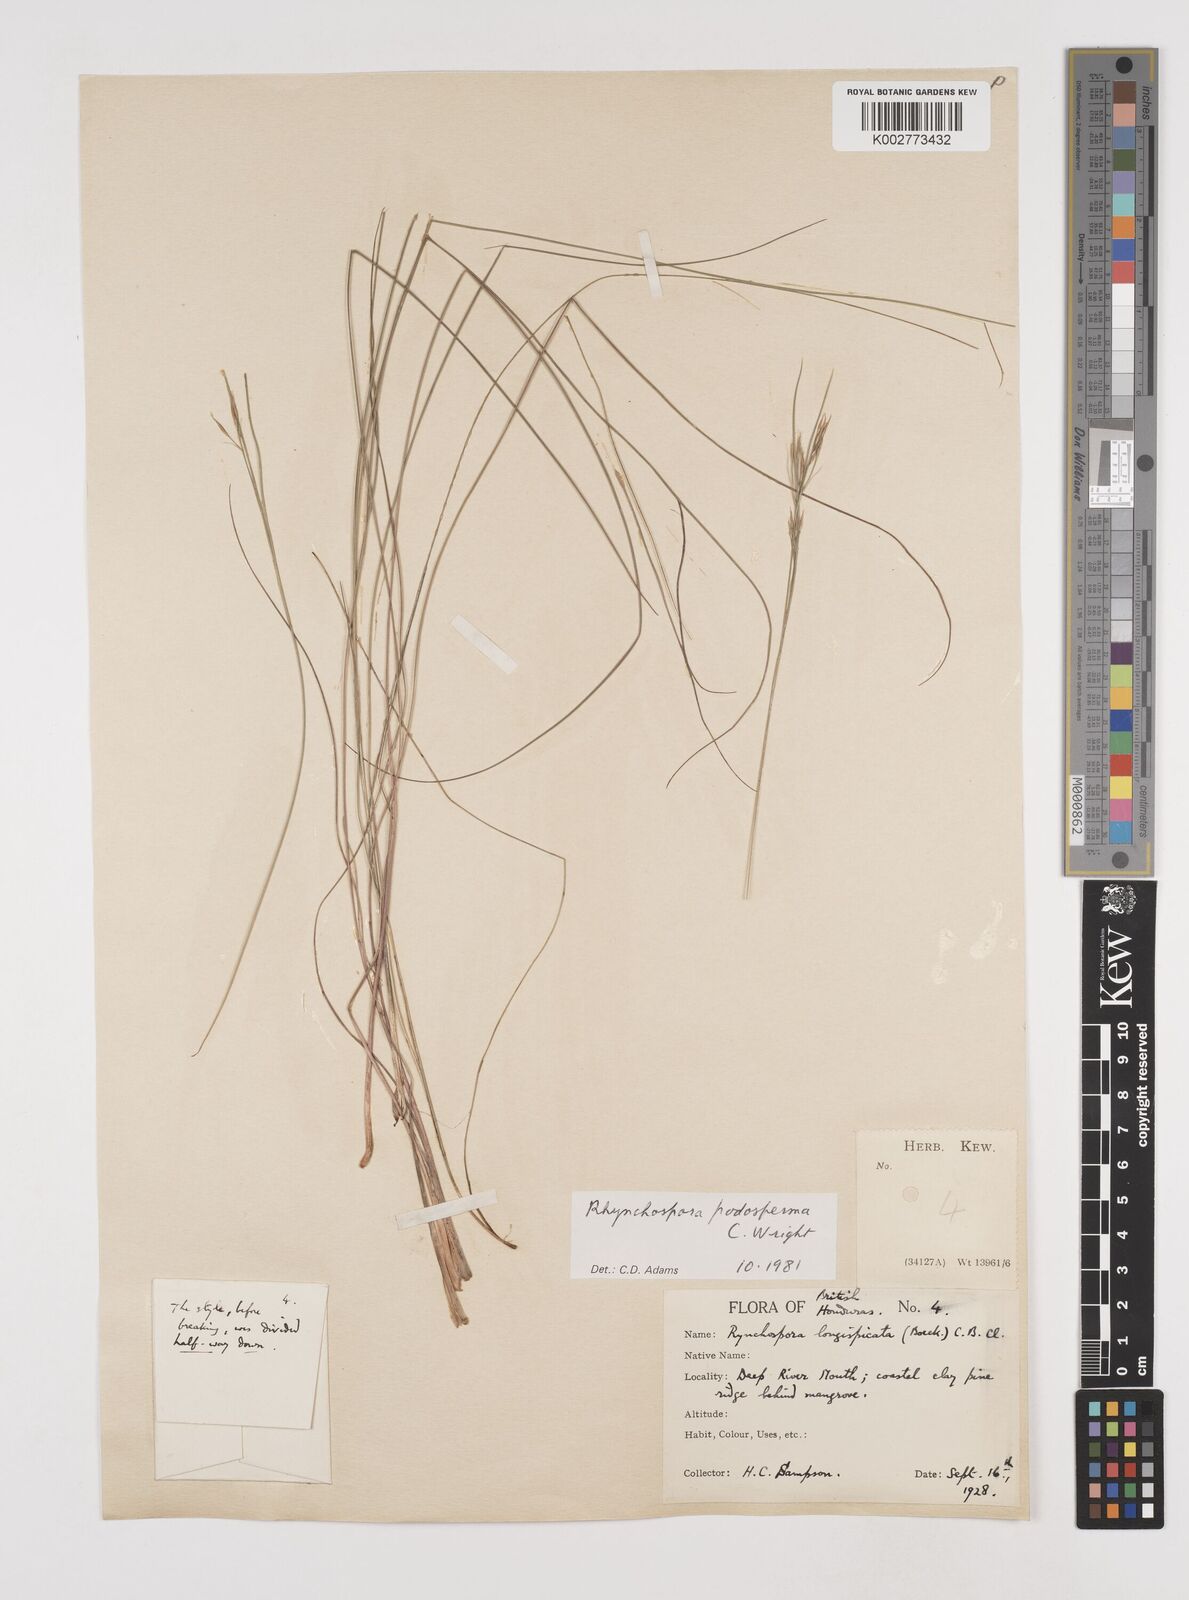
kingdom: Plantae
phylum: Tracheophyta
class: Liliopsida
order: Poales
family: Cyperaceae
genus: Rhynchospora
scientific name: Rhynchospora filiformis
